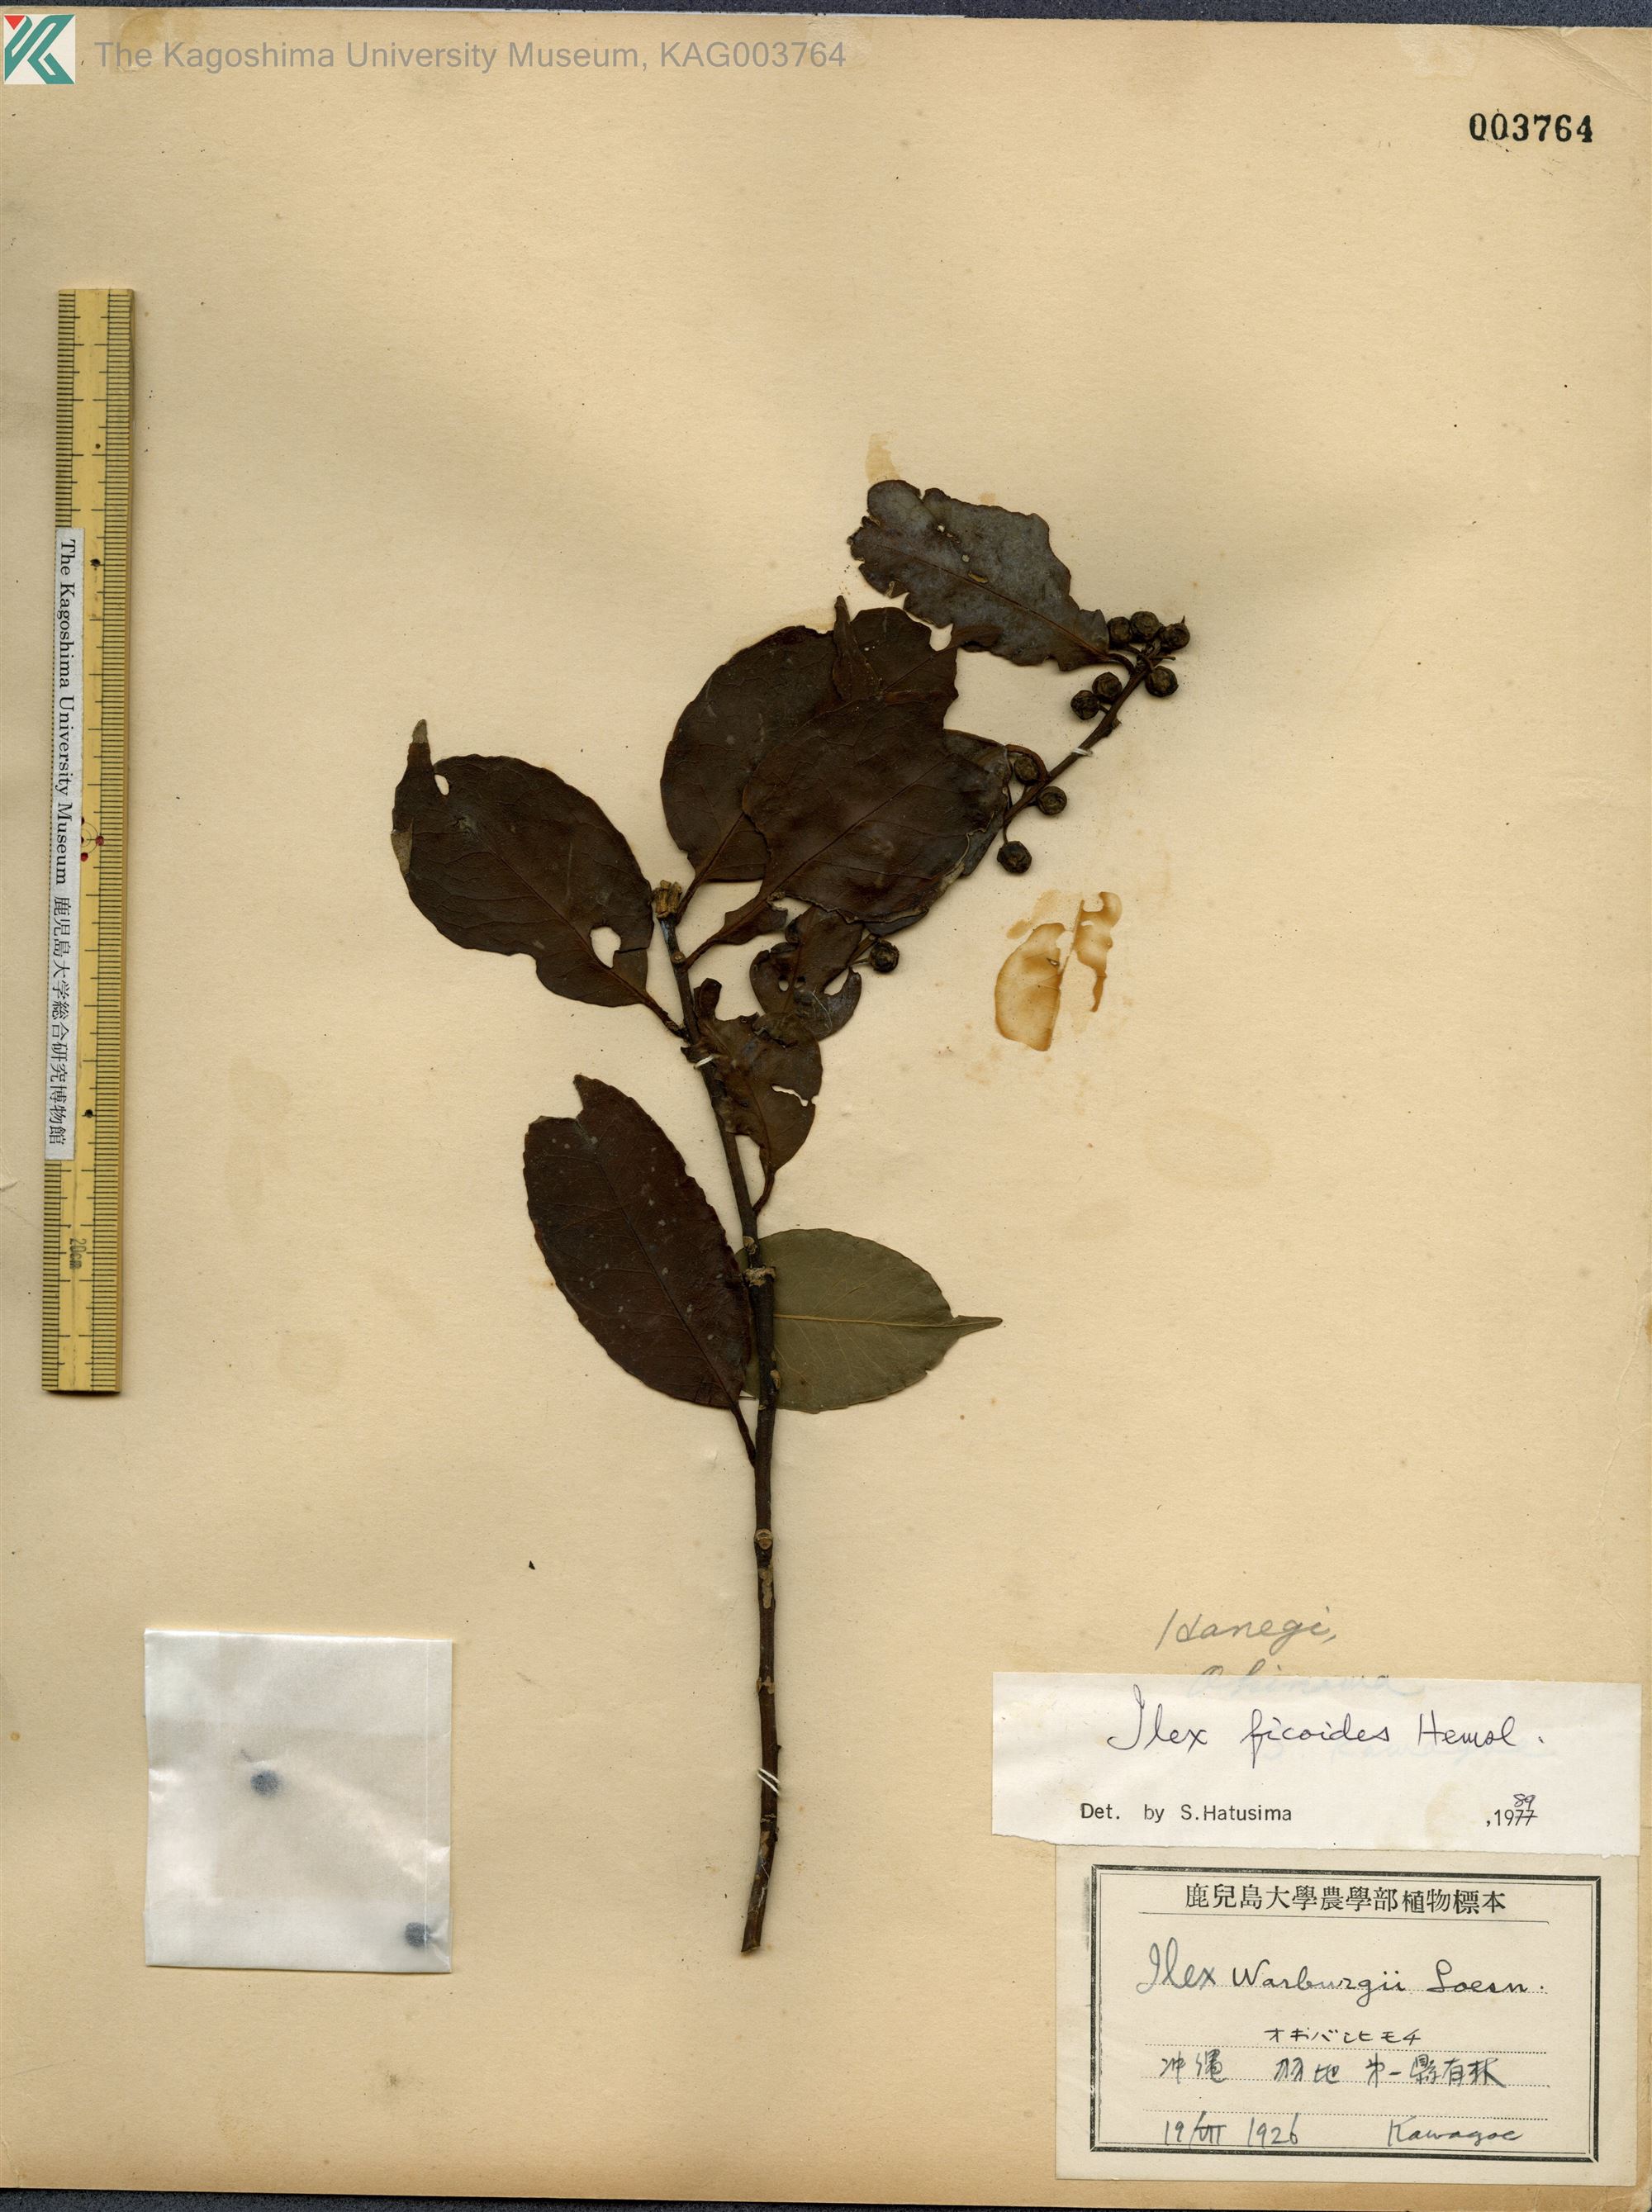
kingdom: Plantae
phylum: Tracheophyta
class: Magnoliopsida
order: Aquifoliales
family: Aquifoliaceae
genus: Ilex
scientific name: Ilex warburgii
